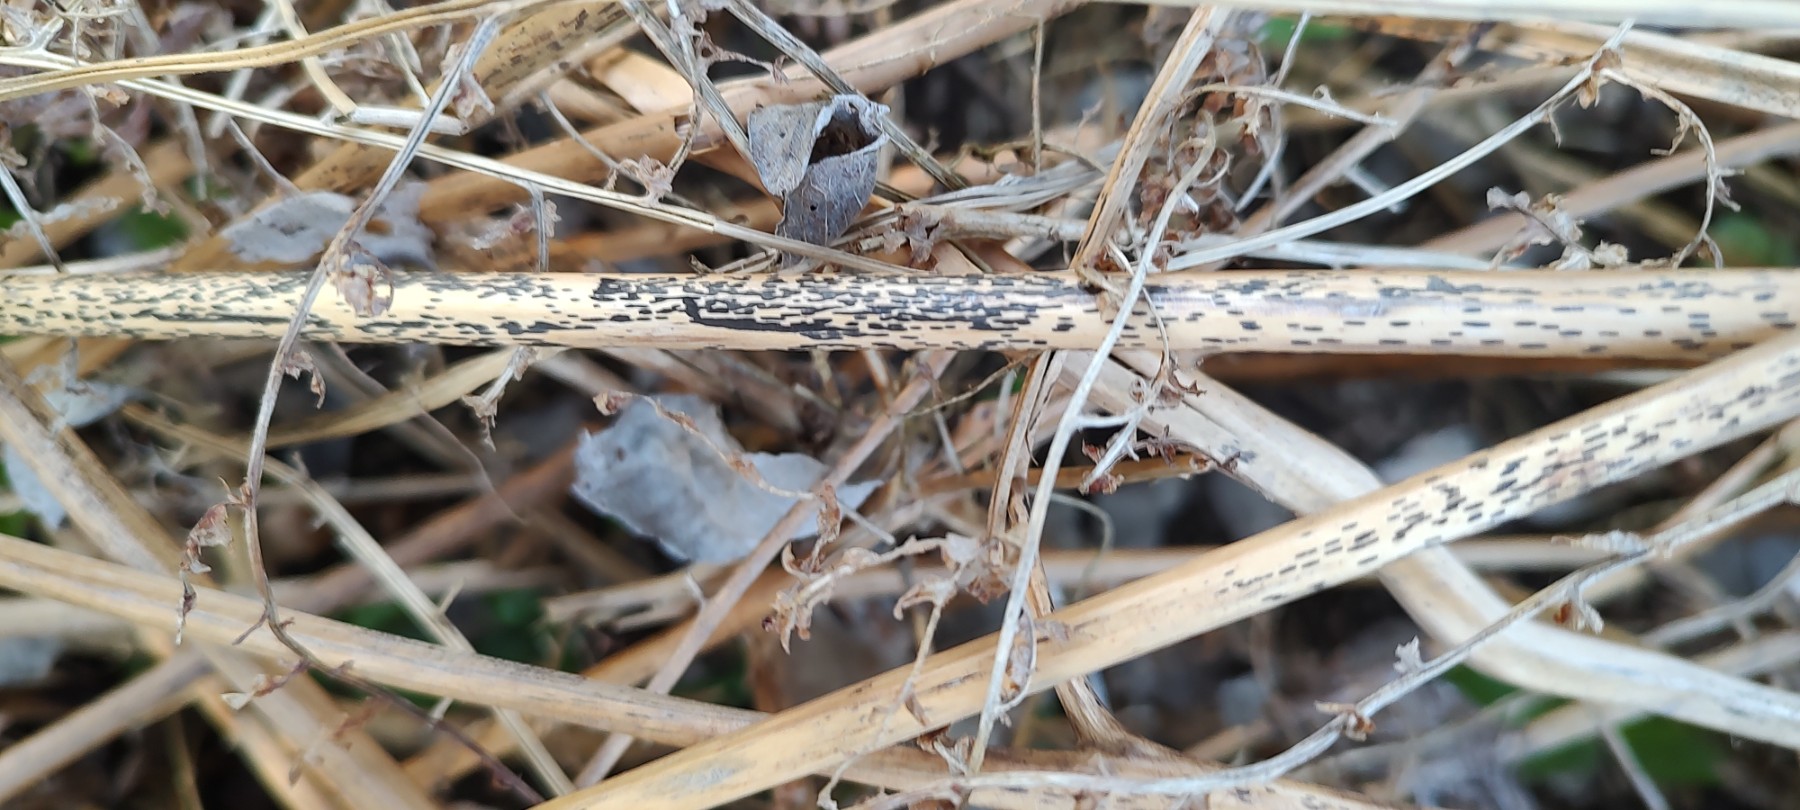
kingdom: Fungi
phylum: Ascomycota
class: Dothideomycetes
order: Pleosporales
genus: Rhopographus
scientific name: Rhopographus filicinus
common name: Bracken map
